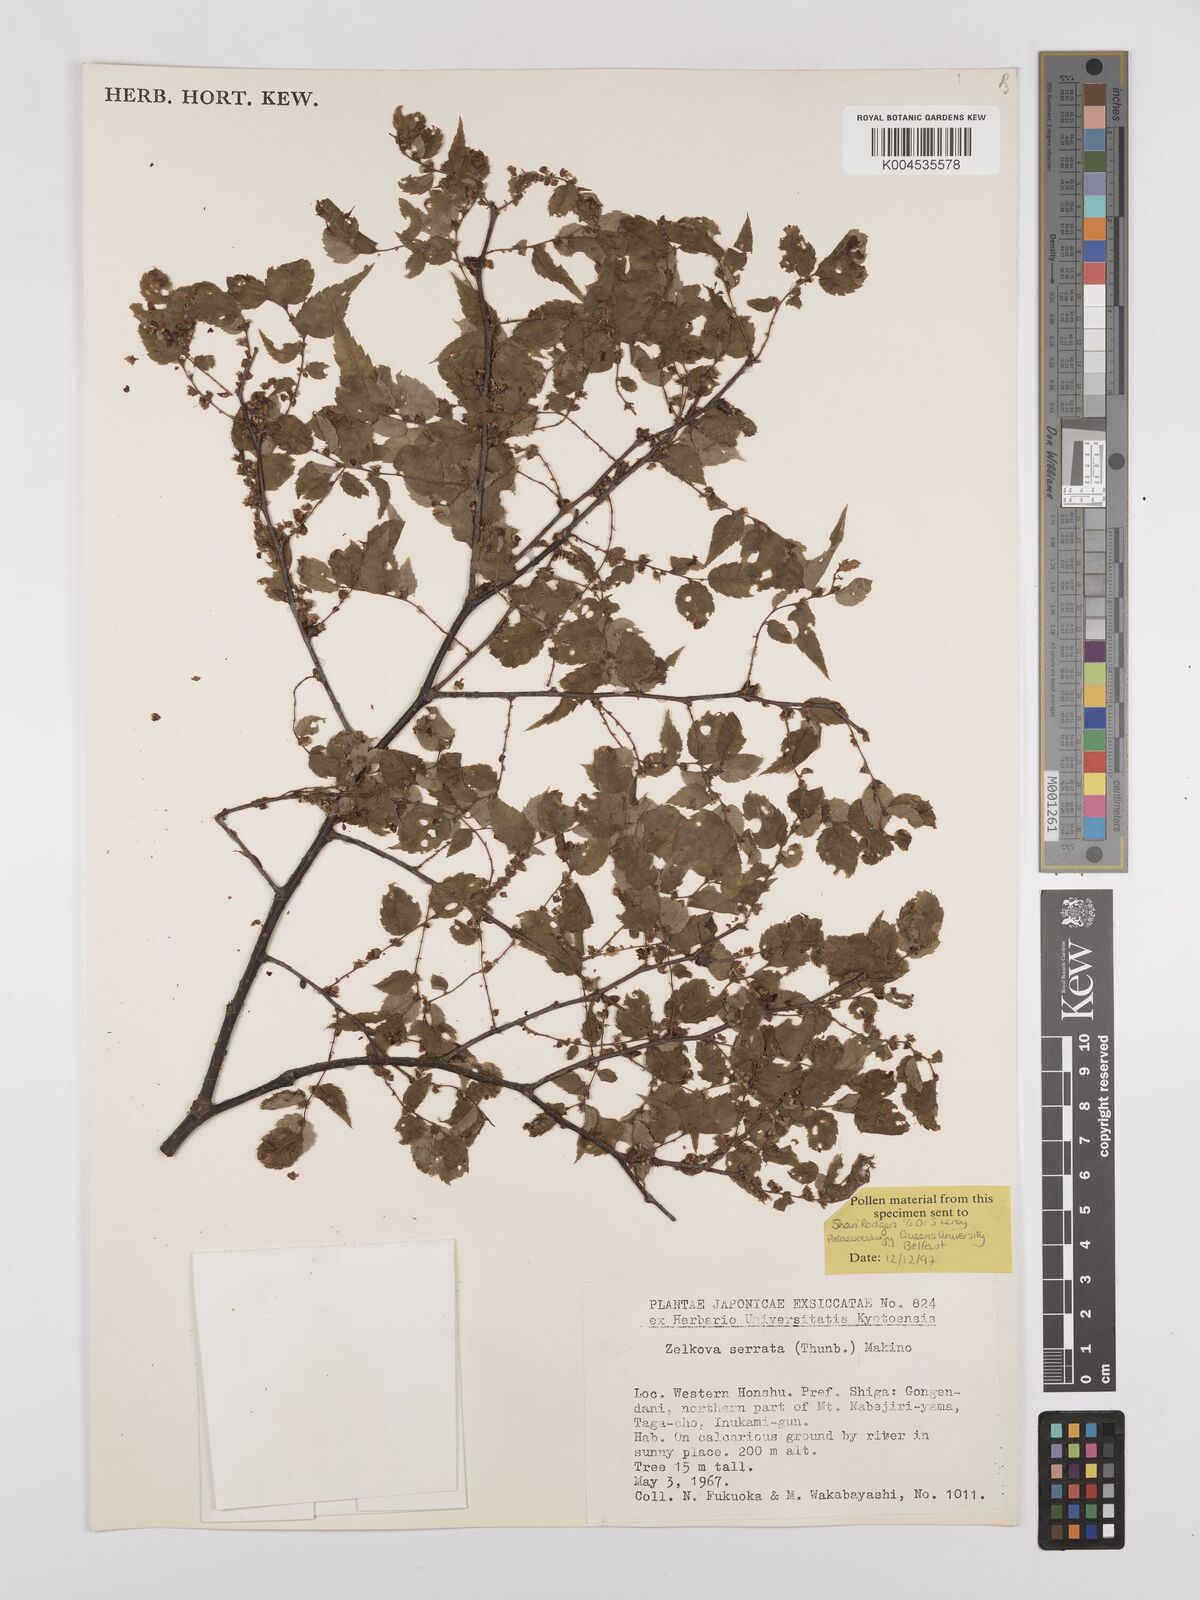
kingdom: Plantae
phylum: Tracheophyta
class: Magnoliopsida
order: Rosales
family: Ulmaceae
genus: Zelkova
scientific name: Zelkova
